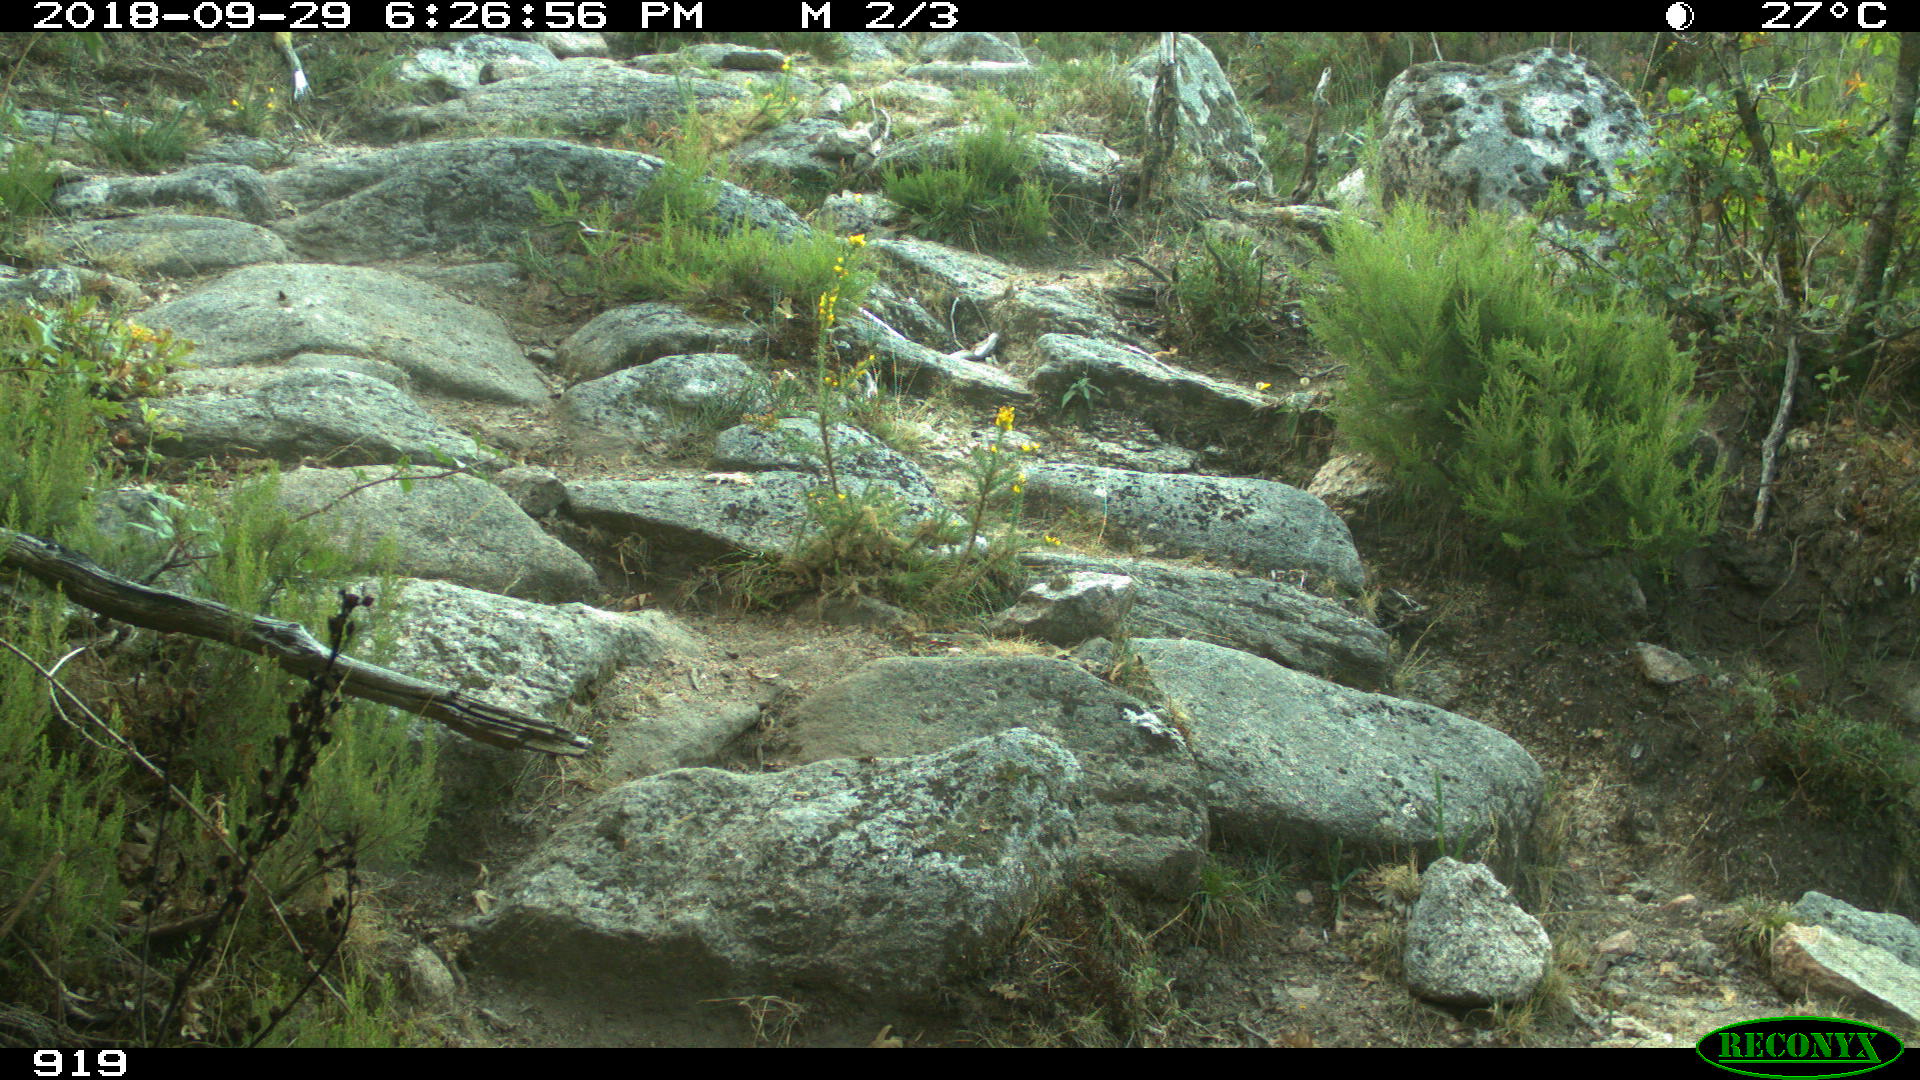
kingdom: Animalia
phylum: Chordata
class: Mammalia
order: Artiodactyla
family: Bovidae
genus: Bos
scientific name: Bos taurus
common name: Domesticated cattle
